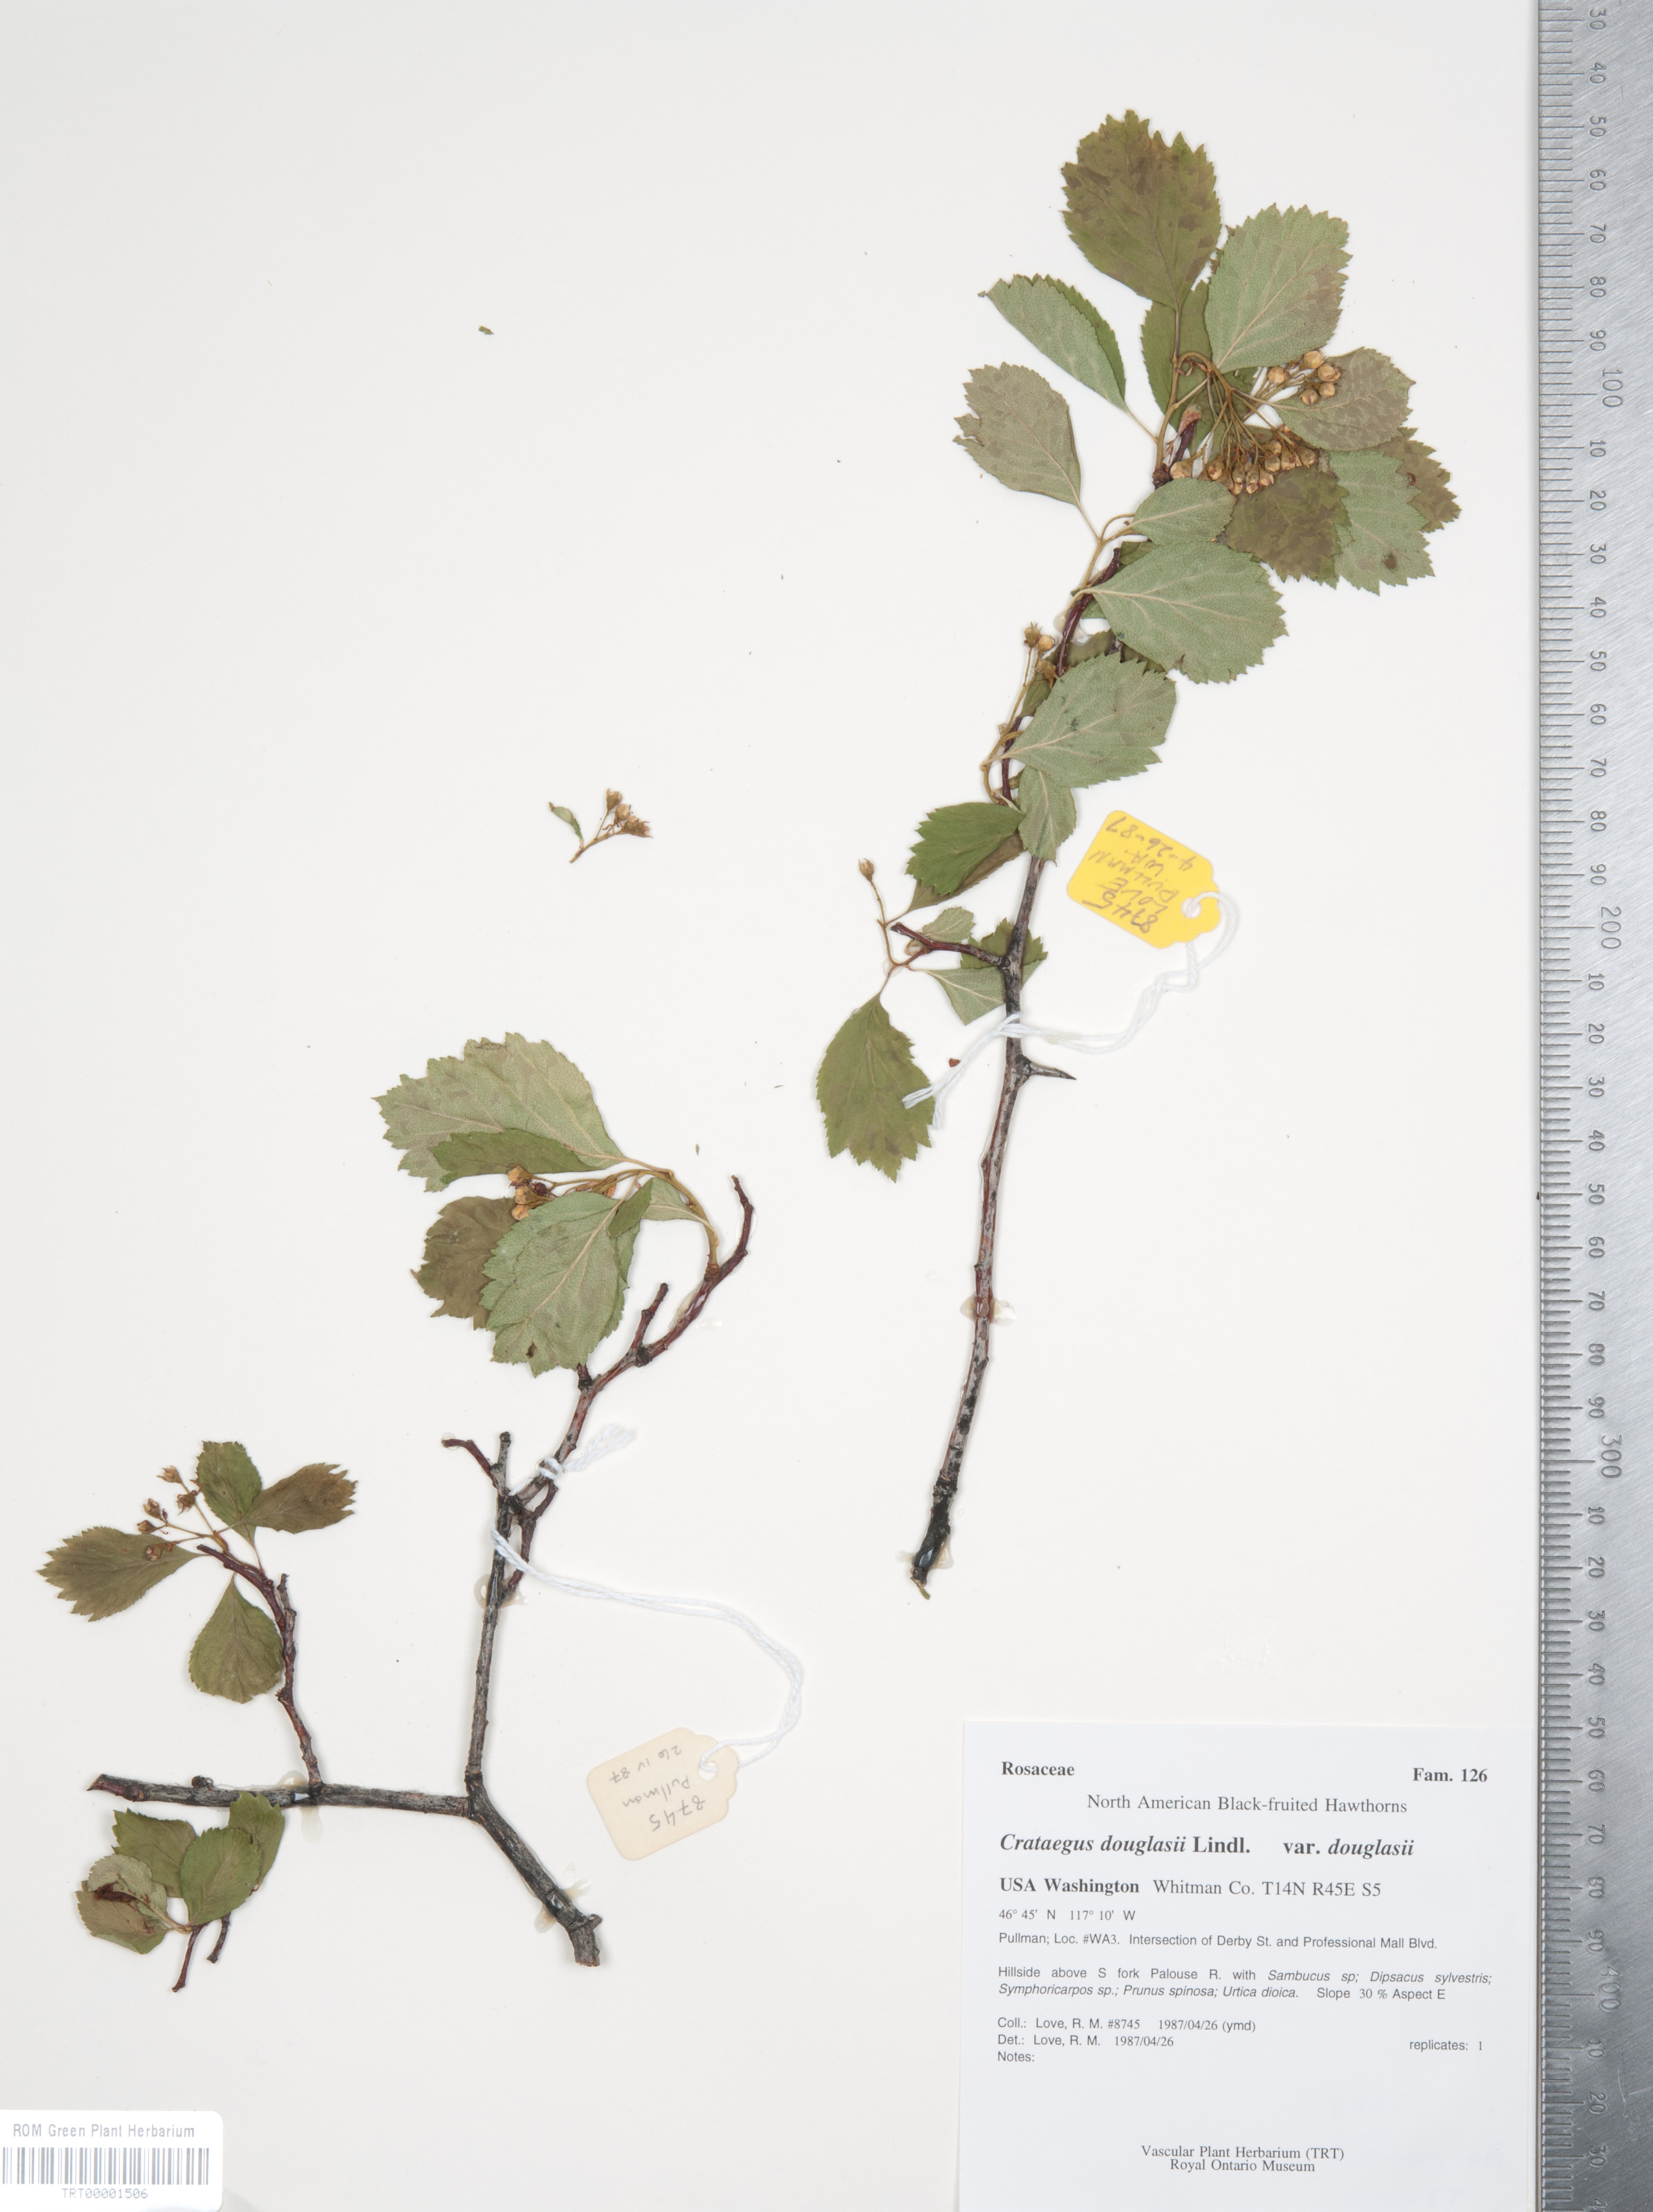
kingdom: Plantae
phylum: Tracheophyta
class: Magnoliopsida
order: Rosales
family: Rosaceae
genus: Crataegus
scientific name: Crataegus douglasii
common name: Black hawthorn
